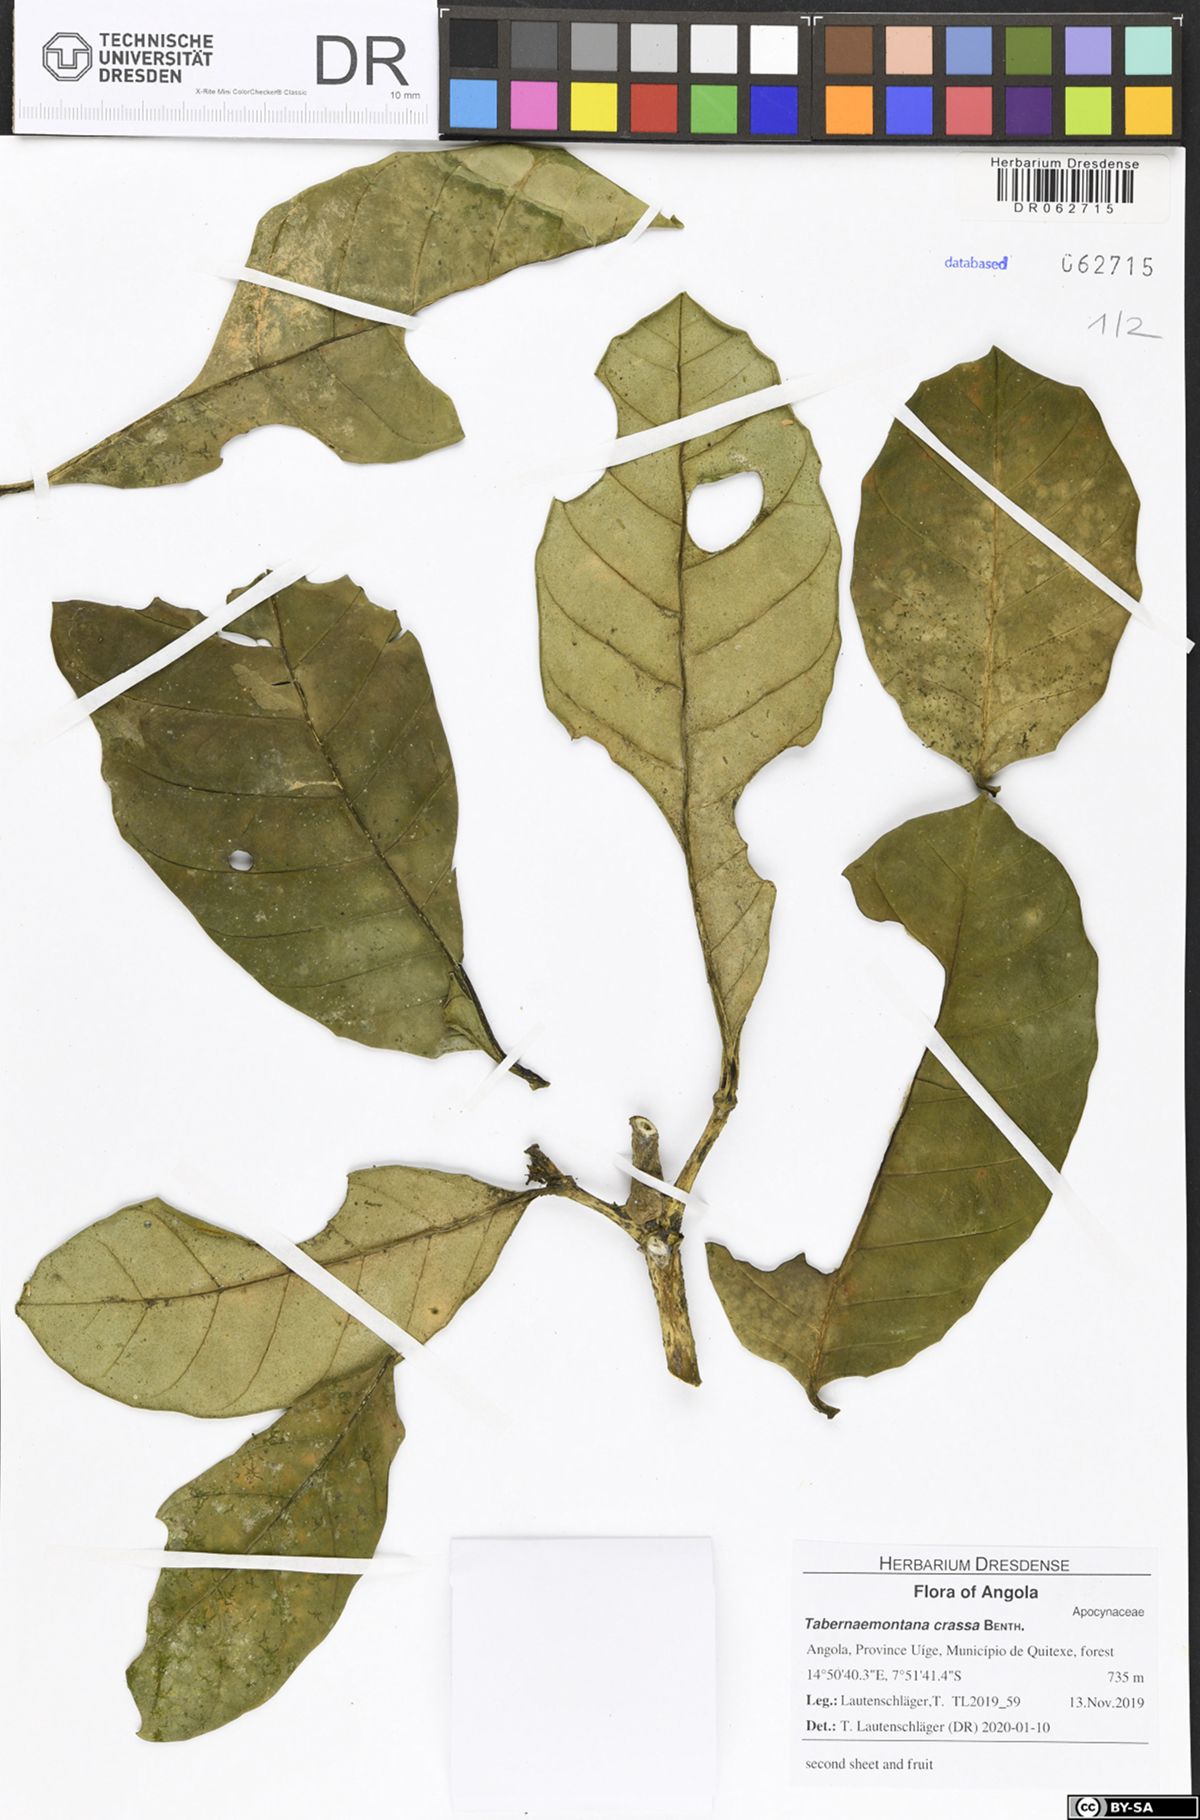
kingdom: Plantae
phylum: Tracheophyta
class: Magnoliopsida
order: Gentianales
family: Apocynaceae
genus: Tabernaemontana
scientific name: Tabernaemontana crassa
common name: Adam's-apple-flower
